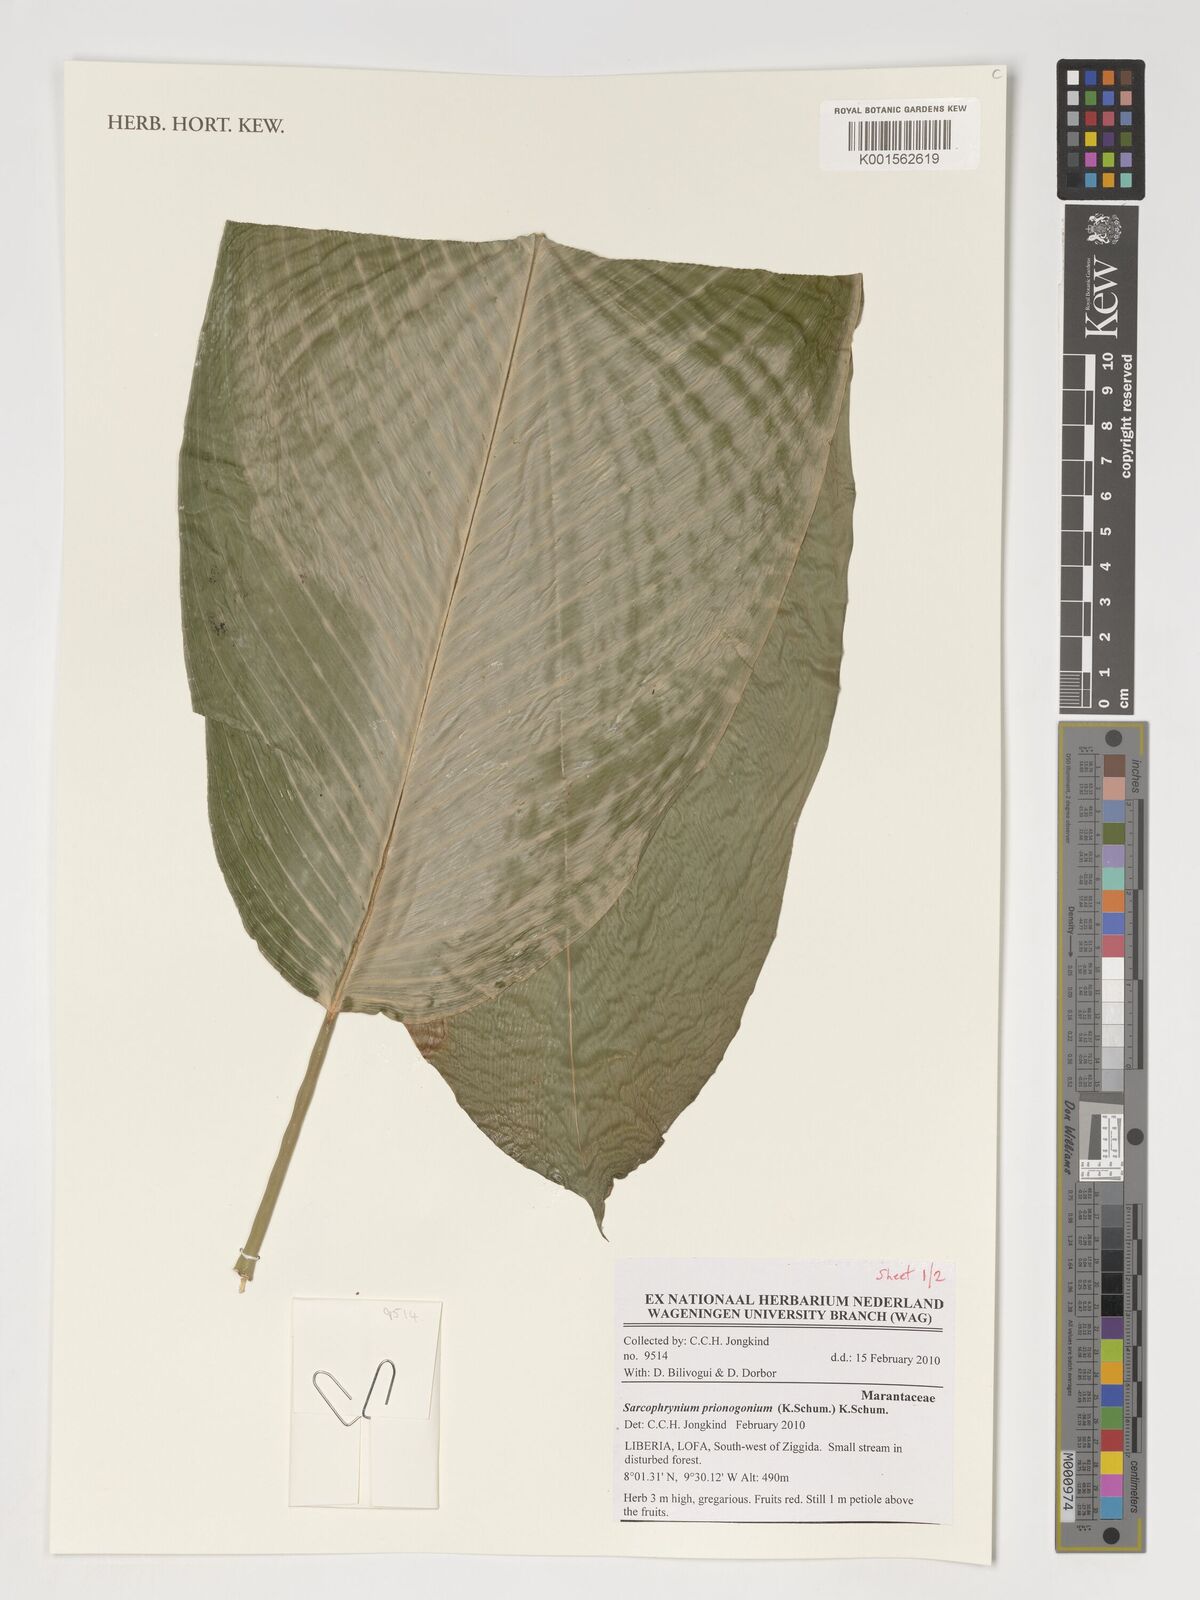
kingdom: Plantae
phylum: Tracheophyta
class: Liliopsida
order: Zingiberales
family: Marantaceae
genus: Sarcophrynium
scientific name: Sarcophrynium prionogonium
